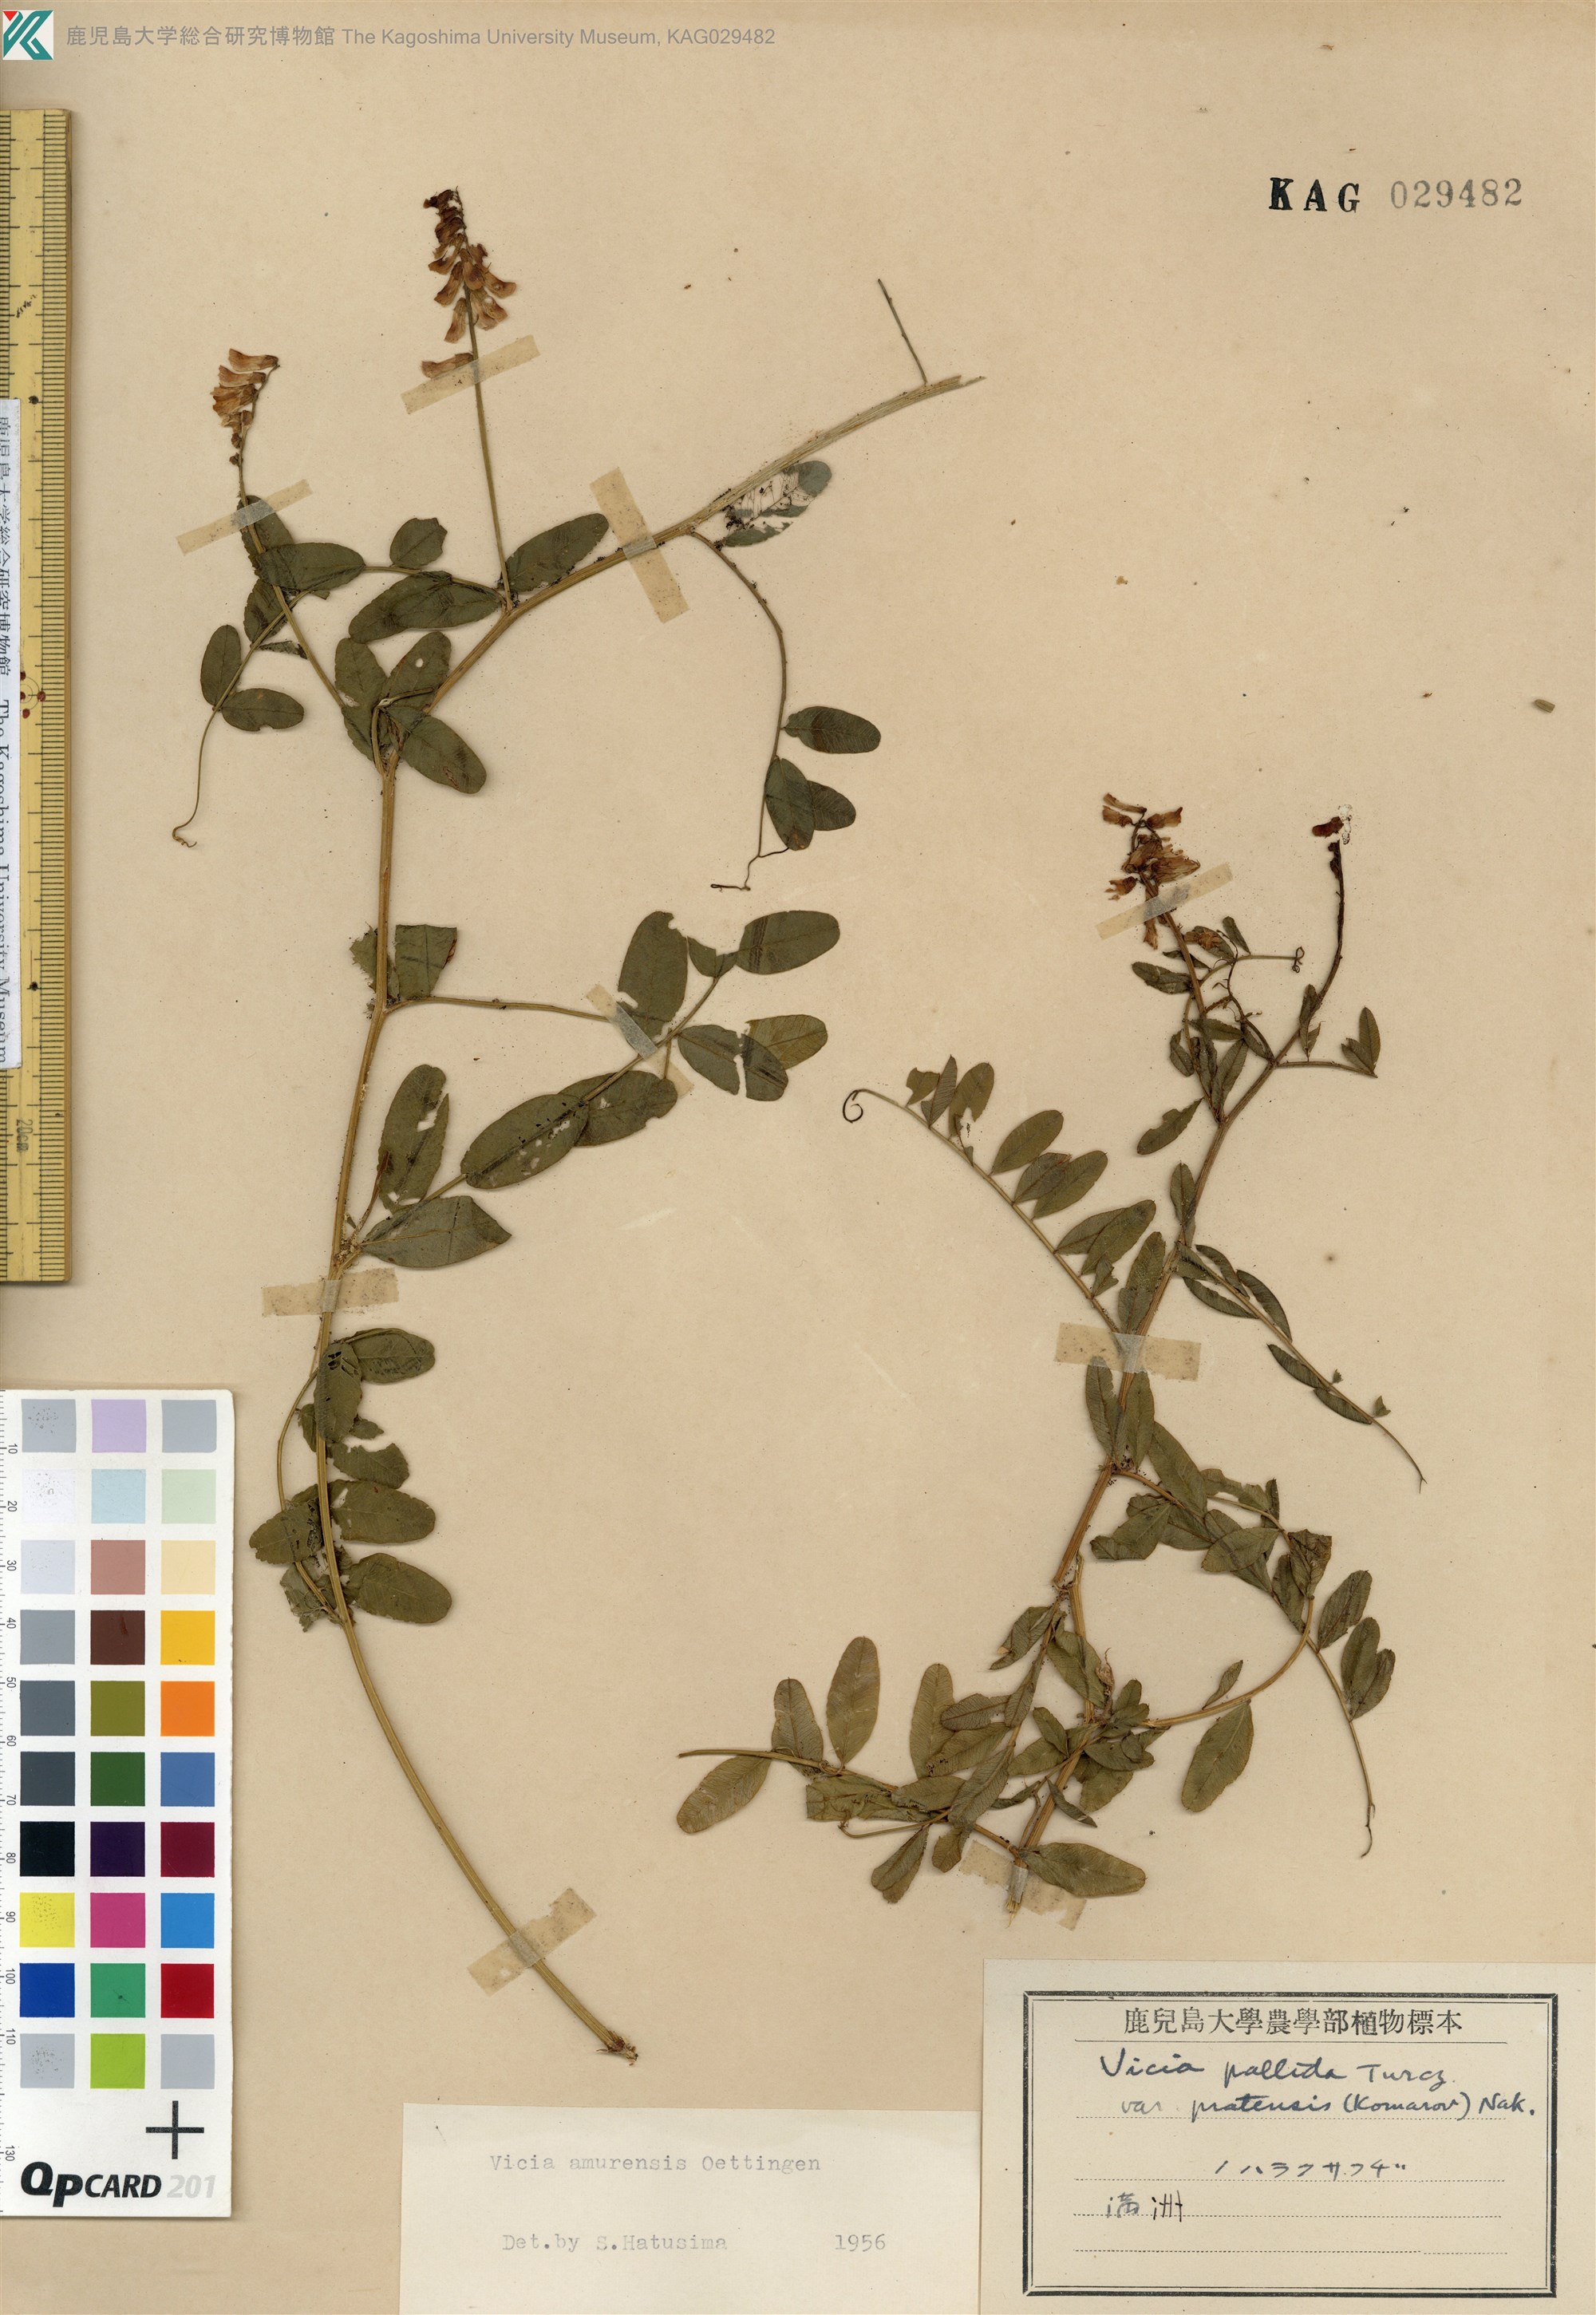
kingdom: Plantae
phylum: Tracheophyta
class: Magnoliopsida
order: Fabales
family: Fabaceae
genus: Vicia
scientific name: Vicia amurensis
